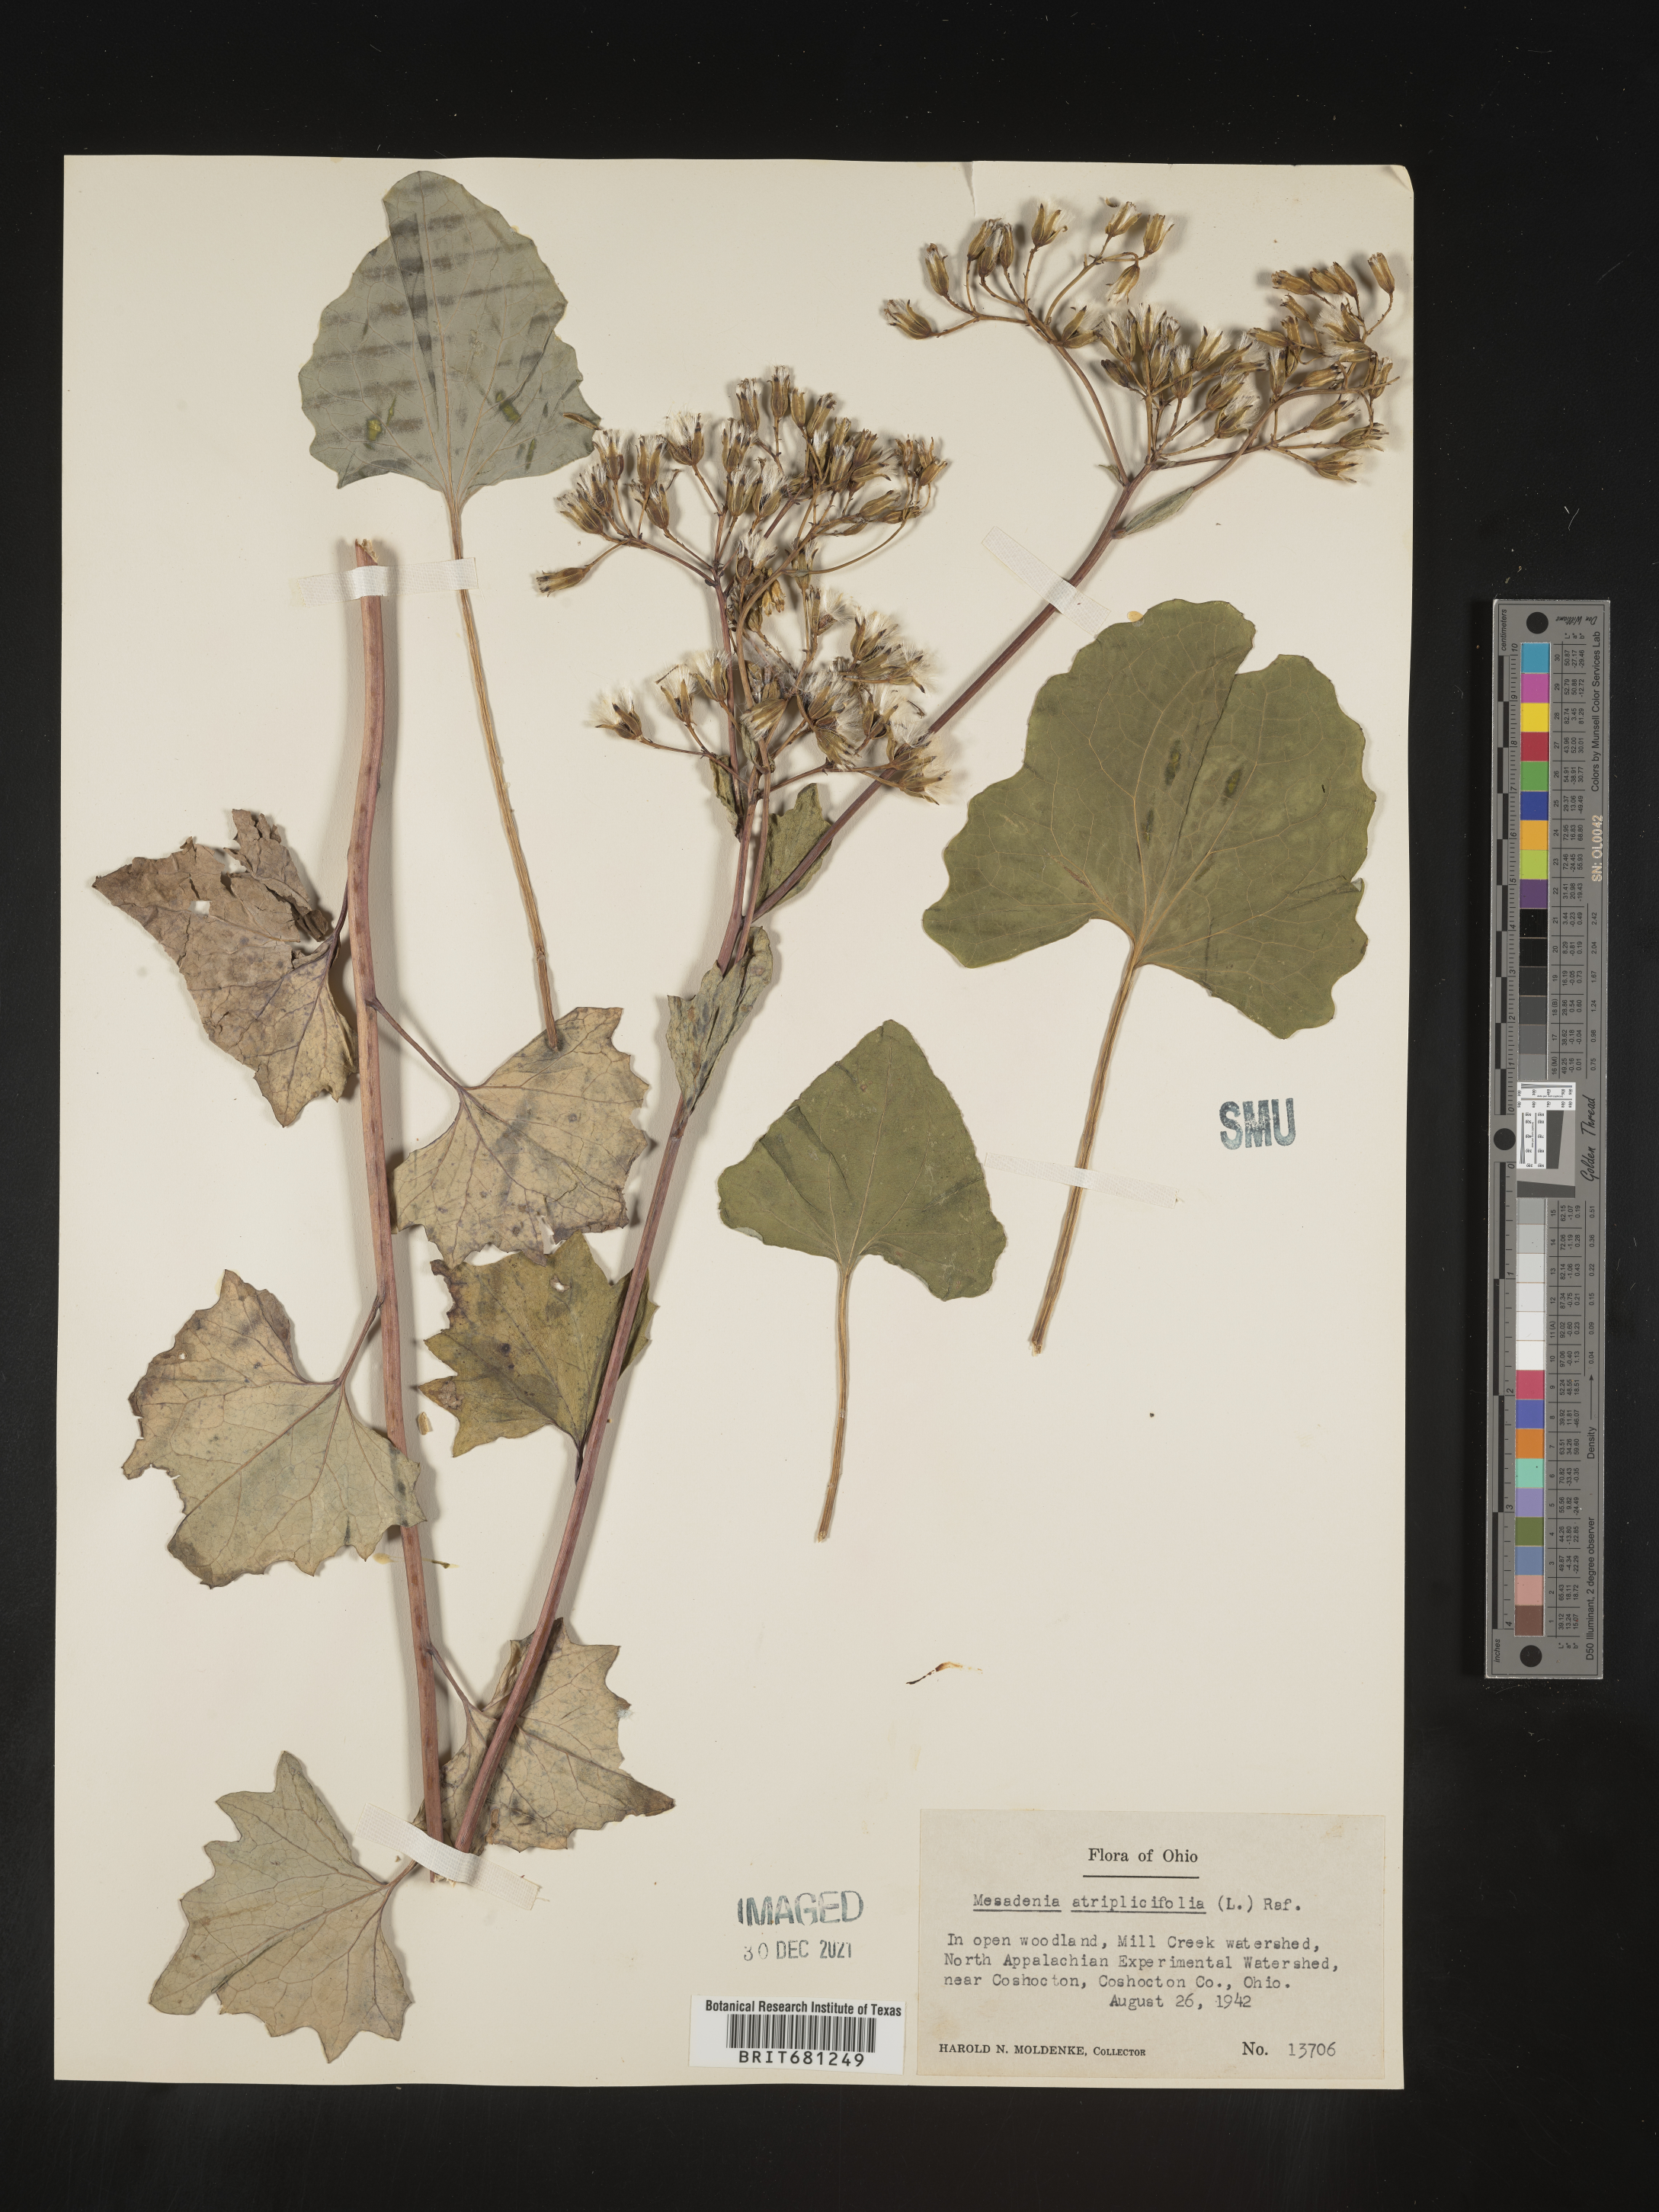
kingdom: Plantae
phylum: Tracheophyta
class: Magnoliopsida
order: Asterales
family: Asteraceae
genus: Arnoglossum
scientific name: Arnoglossum atriplicifolium
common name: Pale indian-plantain
